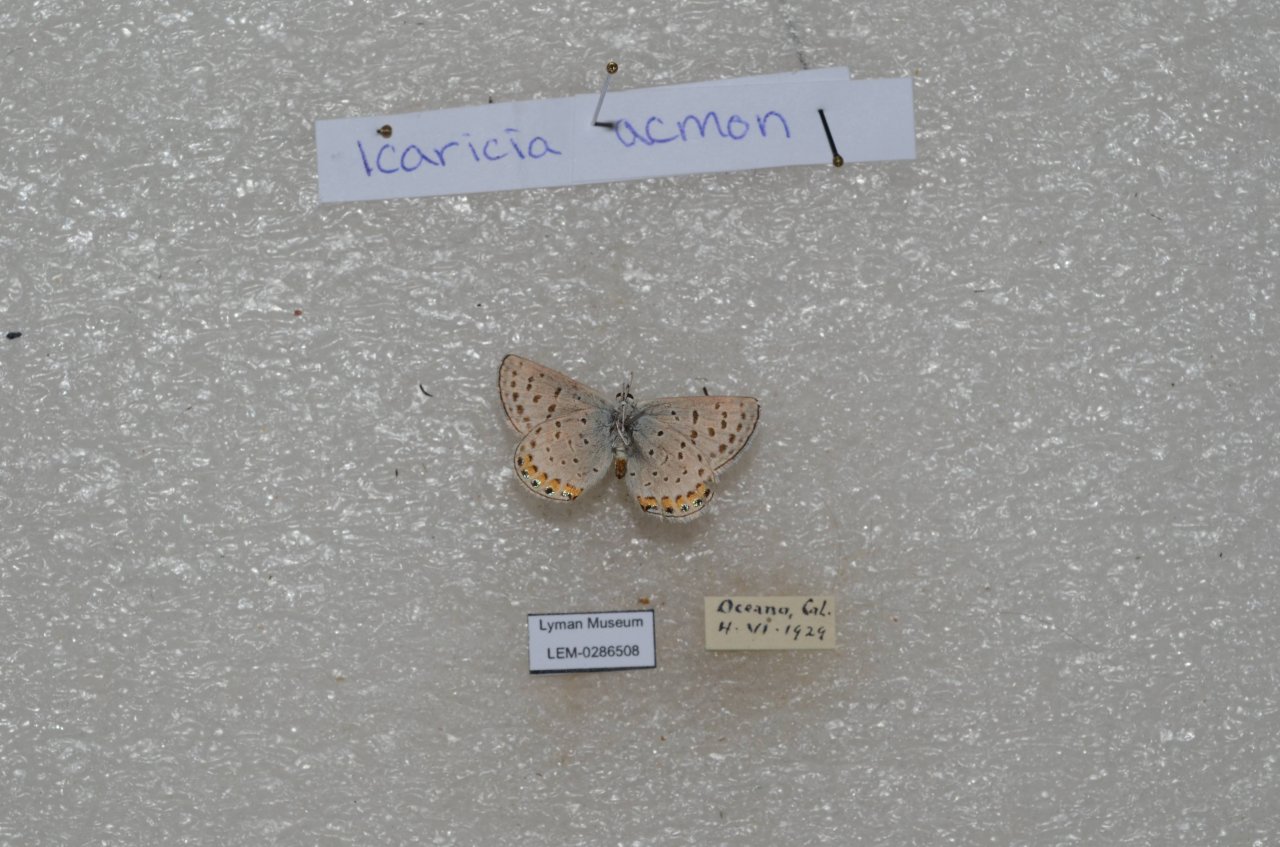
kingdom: Animalia
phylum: Arthropoda
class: Insecta
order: Lepidoptera
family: Lycaenidae
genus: Plebejus
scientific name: Plebejus acmon
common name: Acmon Blue
